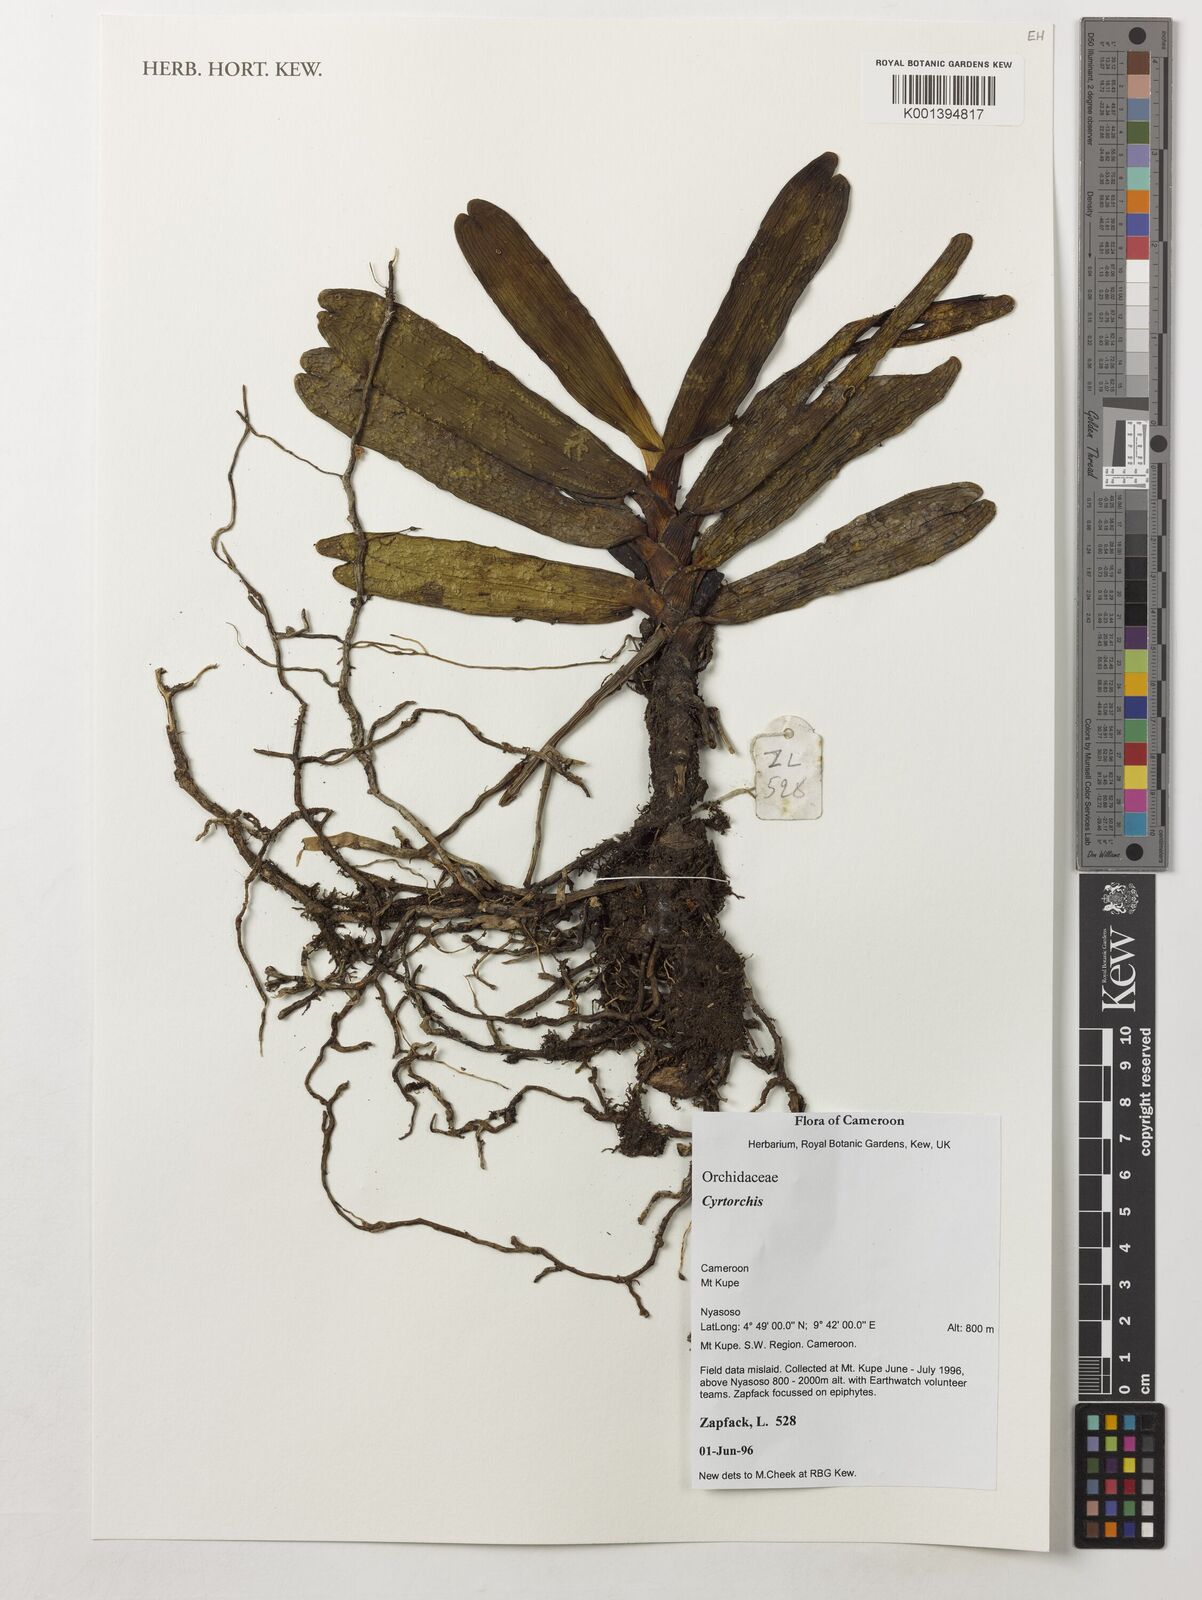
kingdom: Plantae
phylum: Tracheophyta
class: Liliopsida
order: Asparagales
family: Orchidaceae
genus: Cyrtorchis
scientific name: Cyrtorchis
